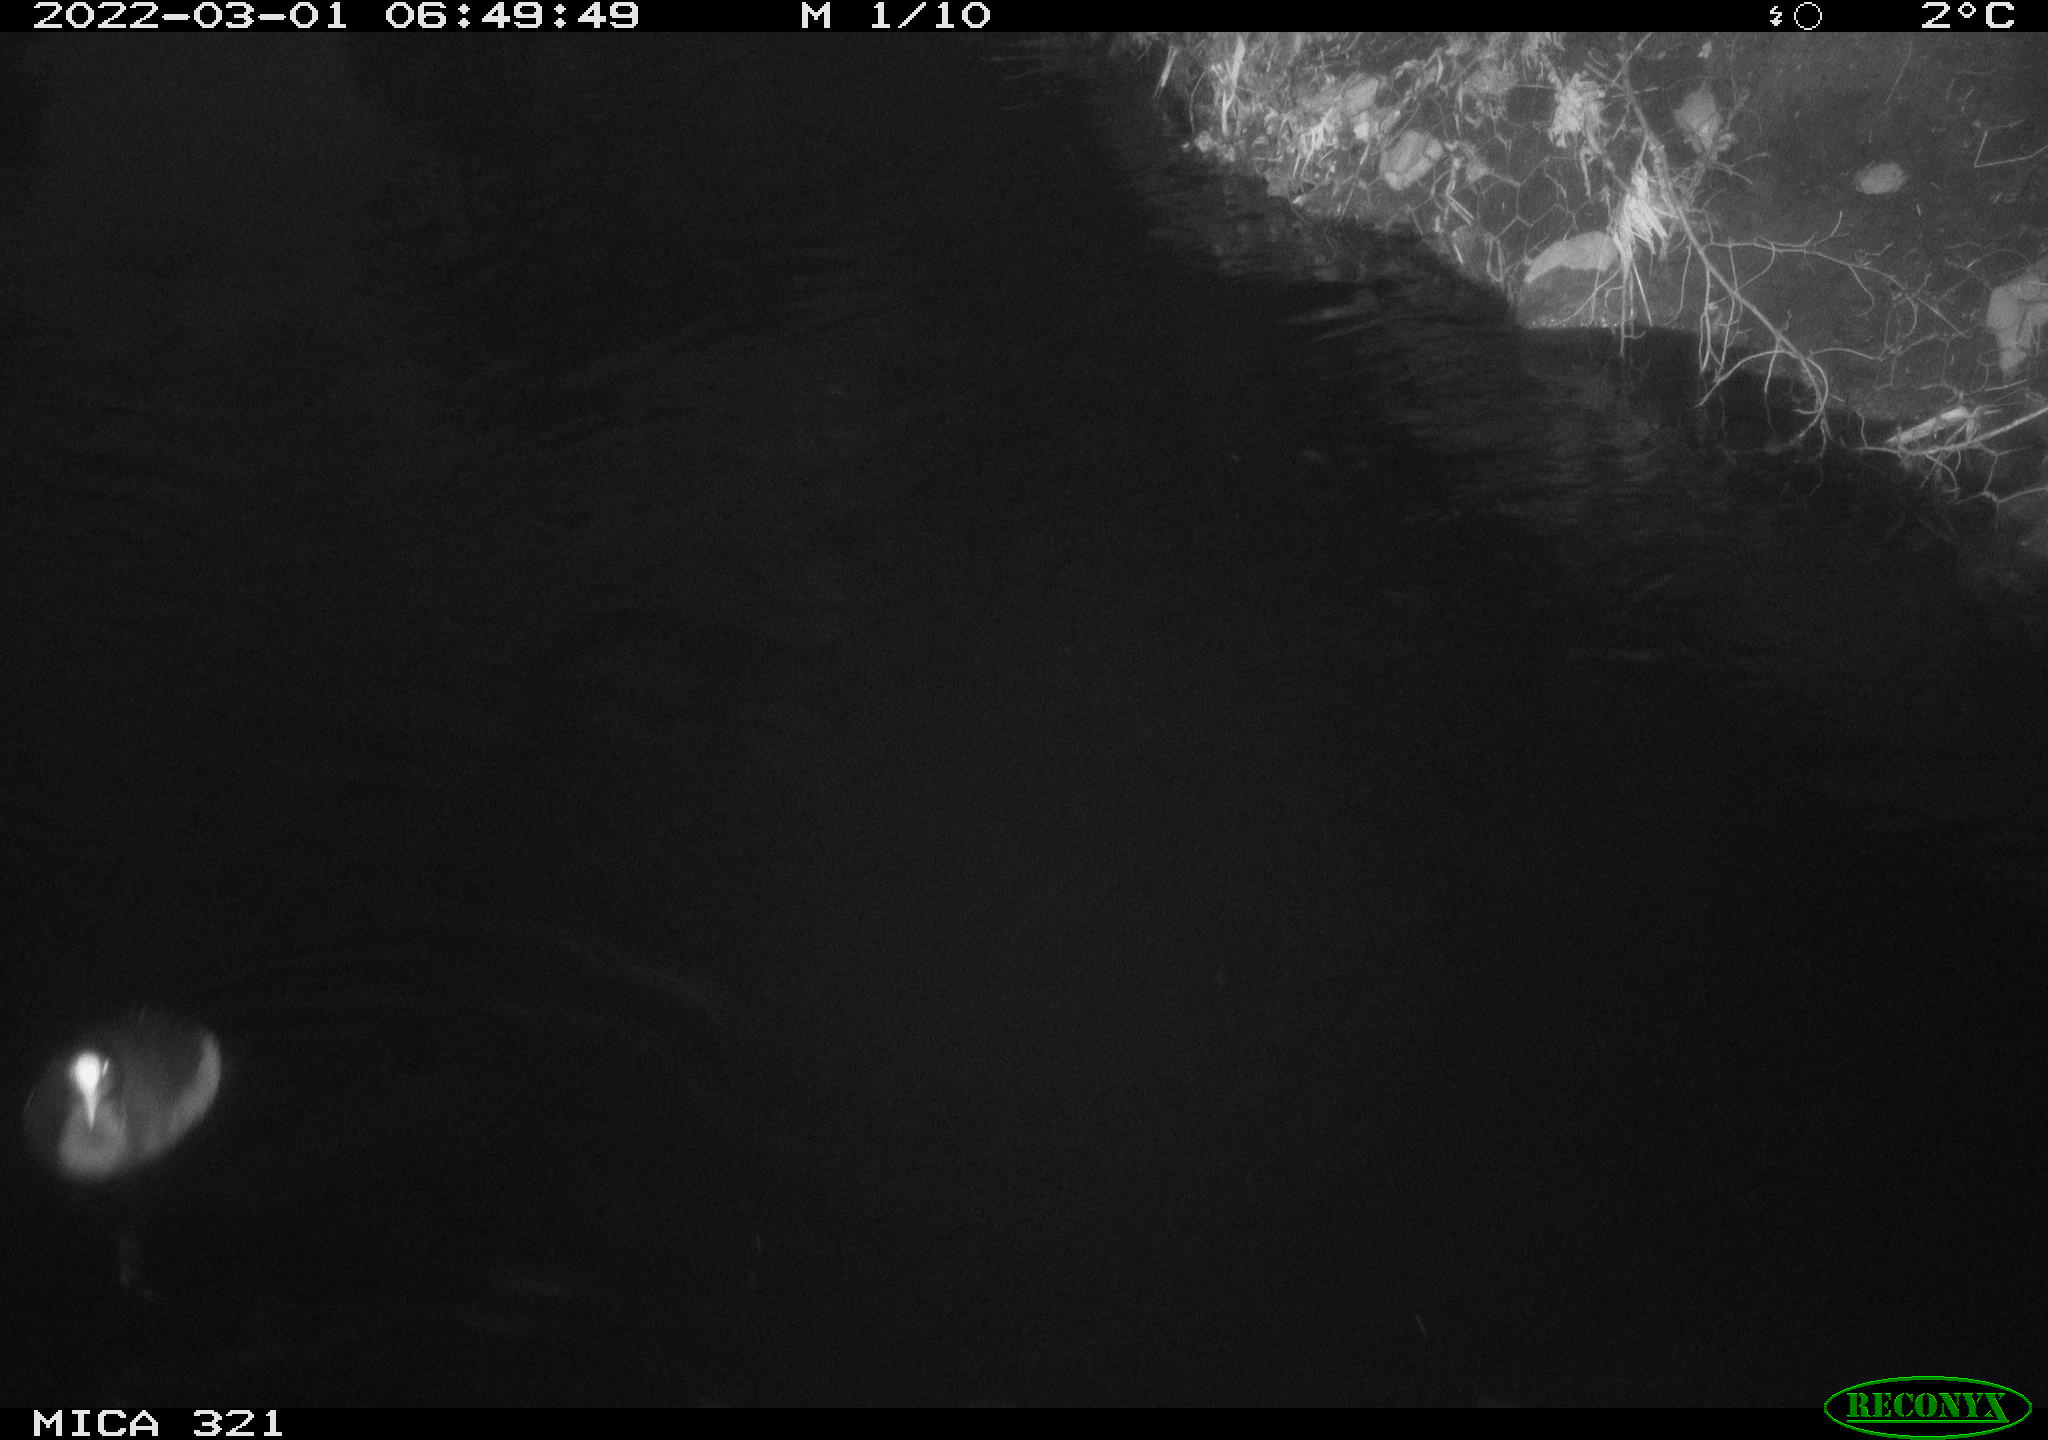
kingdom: Animalia
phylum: Chordata
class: Aves
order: Gruiformes
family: Rallidae
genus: Fulica
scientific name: Fulica atra
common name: Eurasian coot
